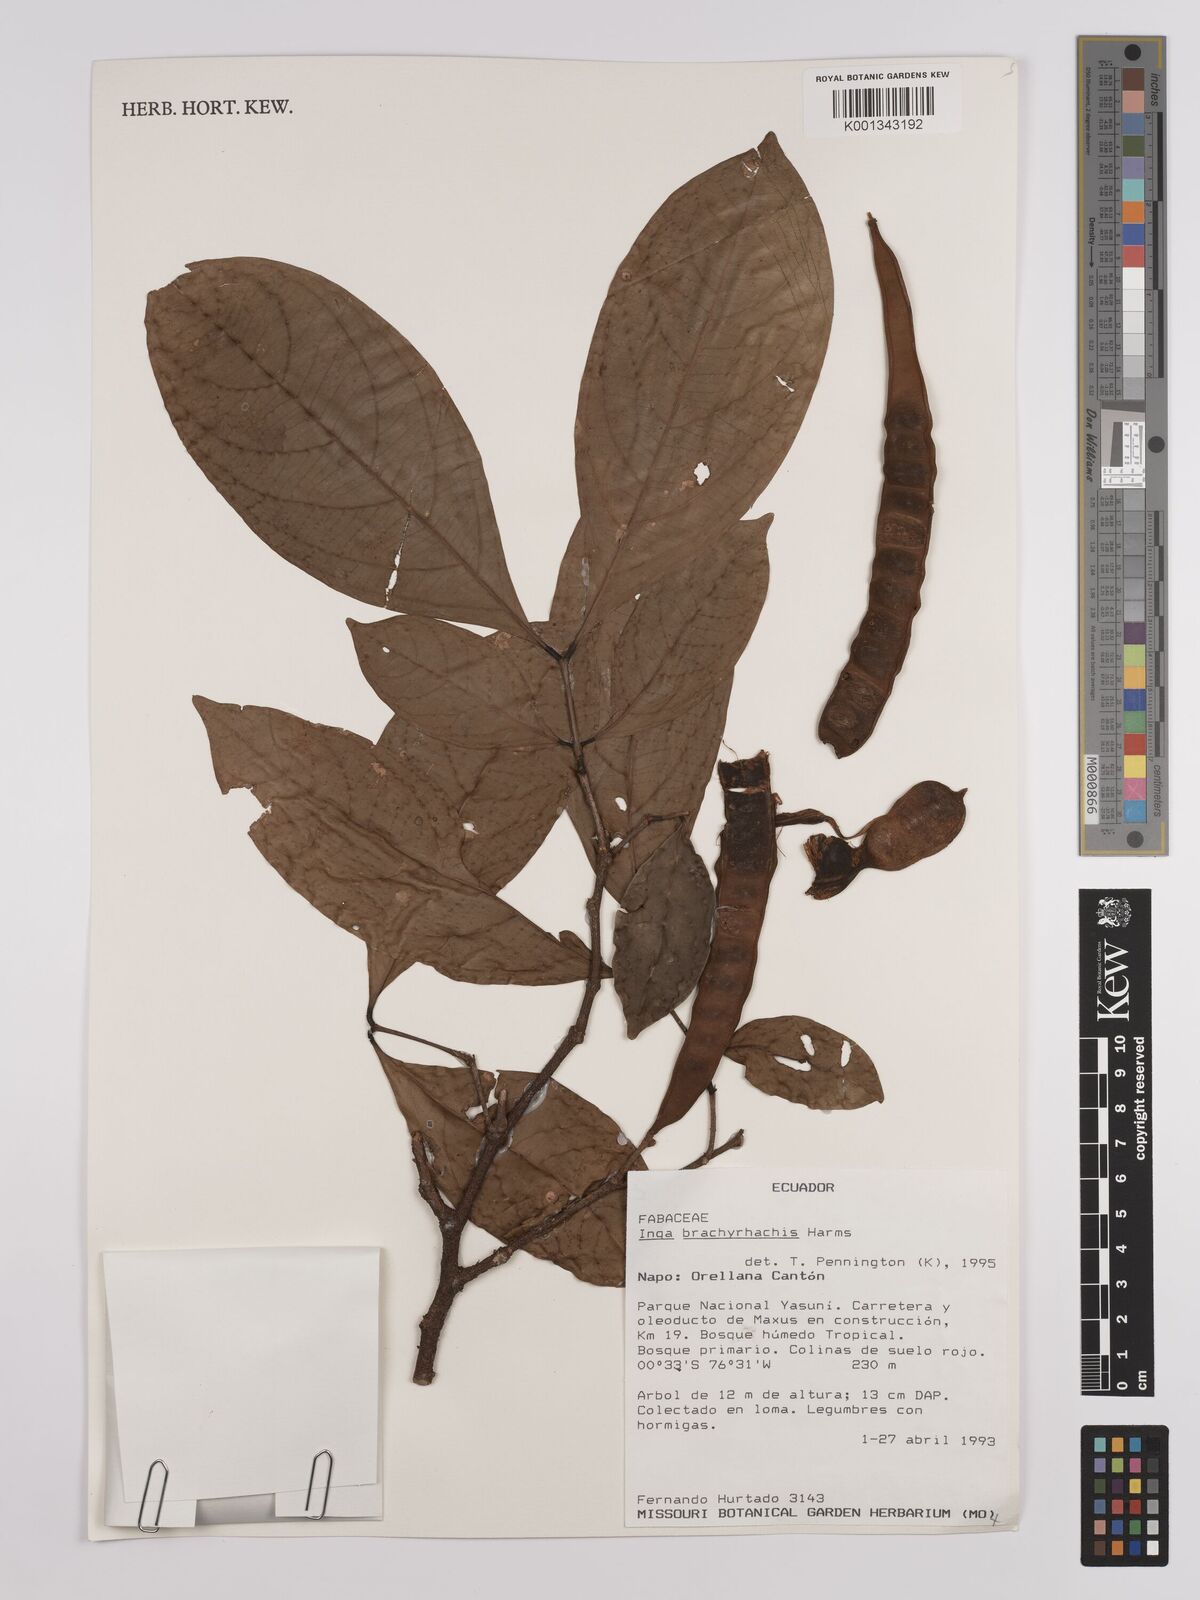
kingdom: Plantae
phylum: Tracheophyta
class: Magnoliopsida
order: Fabales
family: Fabaceae
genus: Inga
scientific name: Inga brachyrhachis
